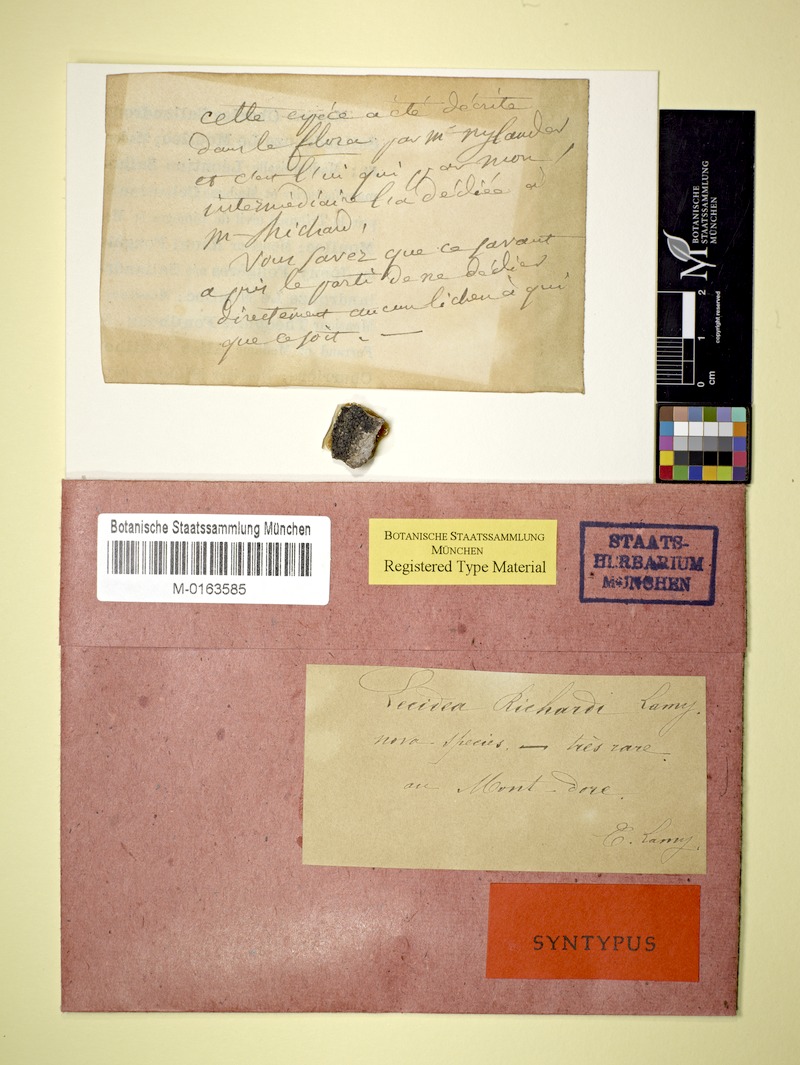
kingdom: Fungi
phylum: Ascomycota
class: Lecanoromycetes
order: Rhizocarpales
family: Rhizocarpaceae
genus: Rhizocarpon
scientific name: Rhizocarpon richardii
